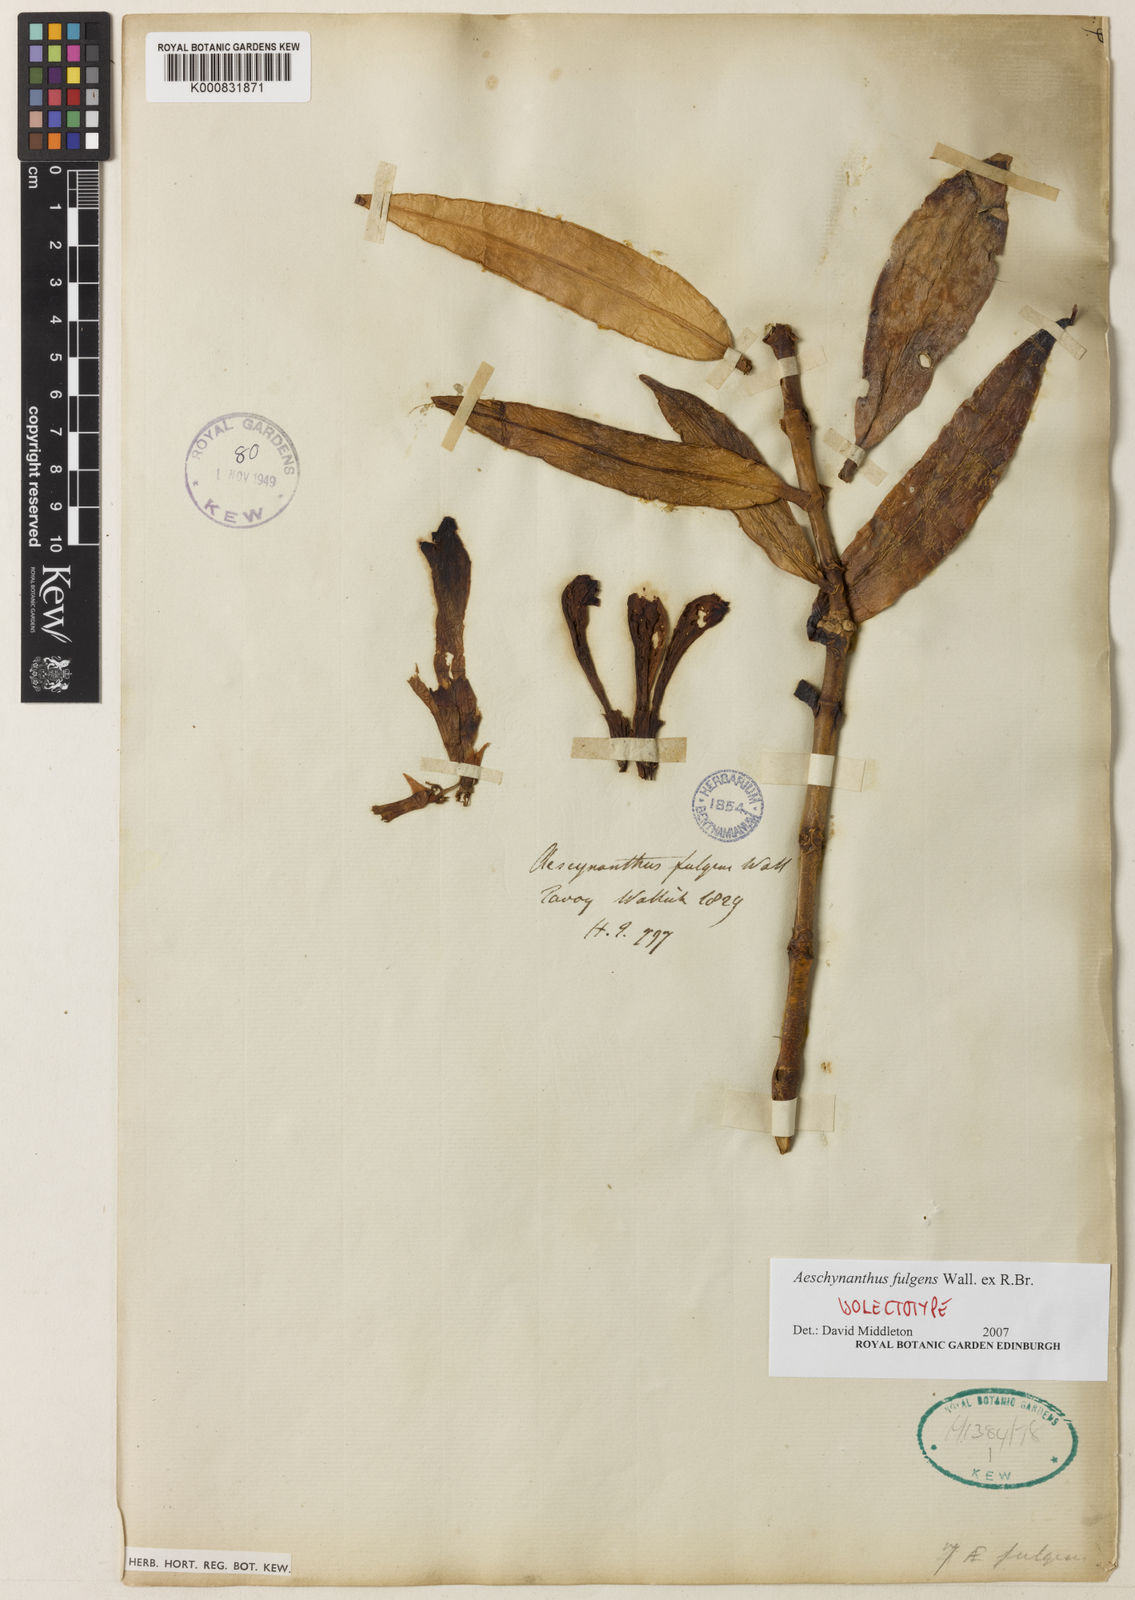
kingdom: Plantae
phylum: Tracheophyta
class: Magnoliopsida
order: Lamiales
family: Gesneriaceae
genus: Aeschynanthus
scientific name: Aeschynanthus fulgens
